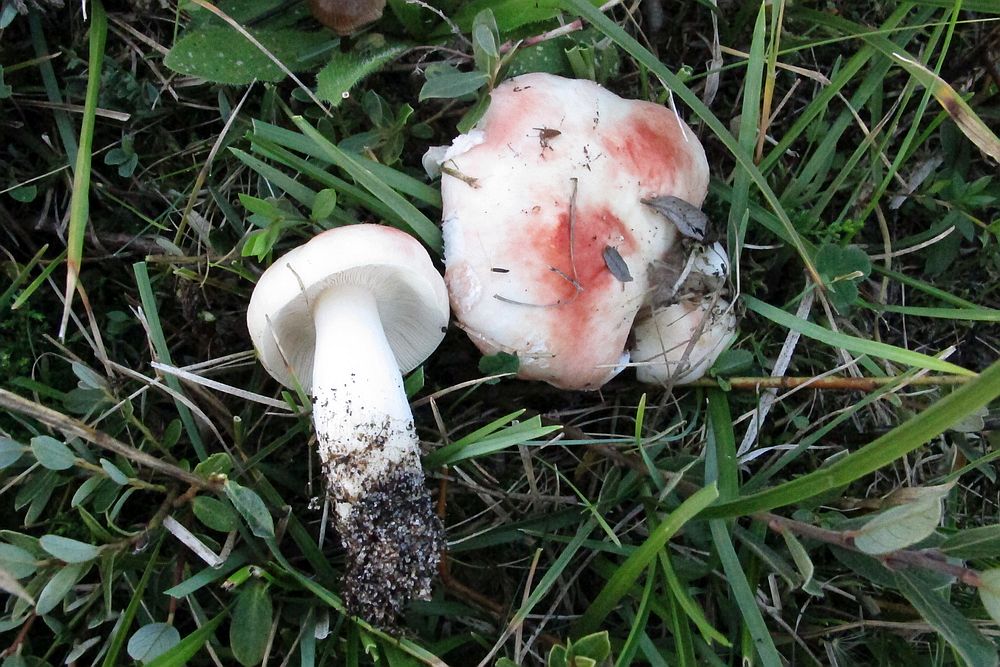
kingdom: Fungi
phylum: Basidiomycota
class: Agaricomycetes
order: Russulales
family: Russulaceae
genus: Russula
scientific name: Russula roseocremea
